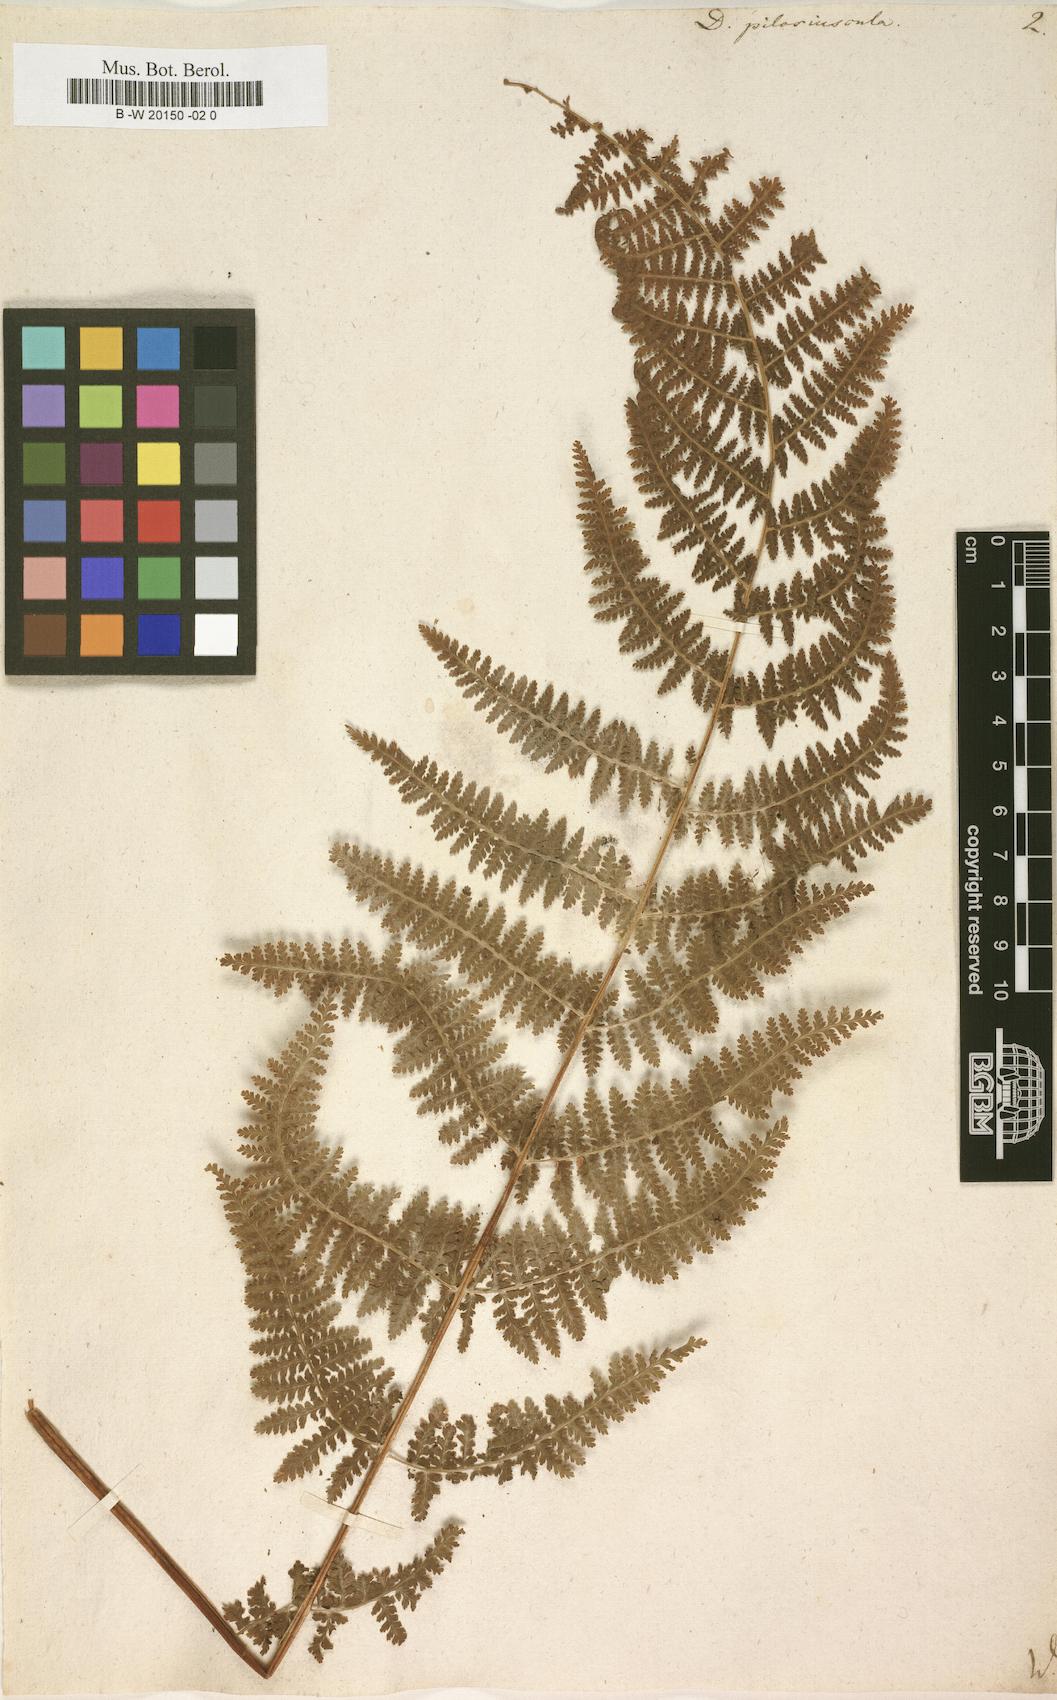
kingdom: Plantae
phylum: Tracheophyta
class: Polypodiopsida
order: Polypodiales
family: Dennstaedtiaceae
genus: Sitobolium
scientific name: Sitobolium punctilobum
